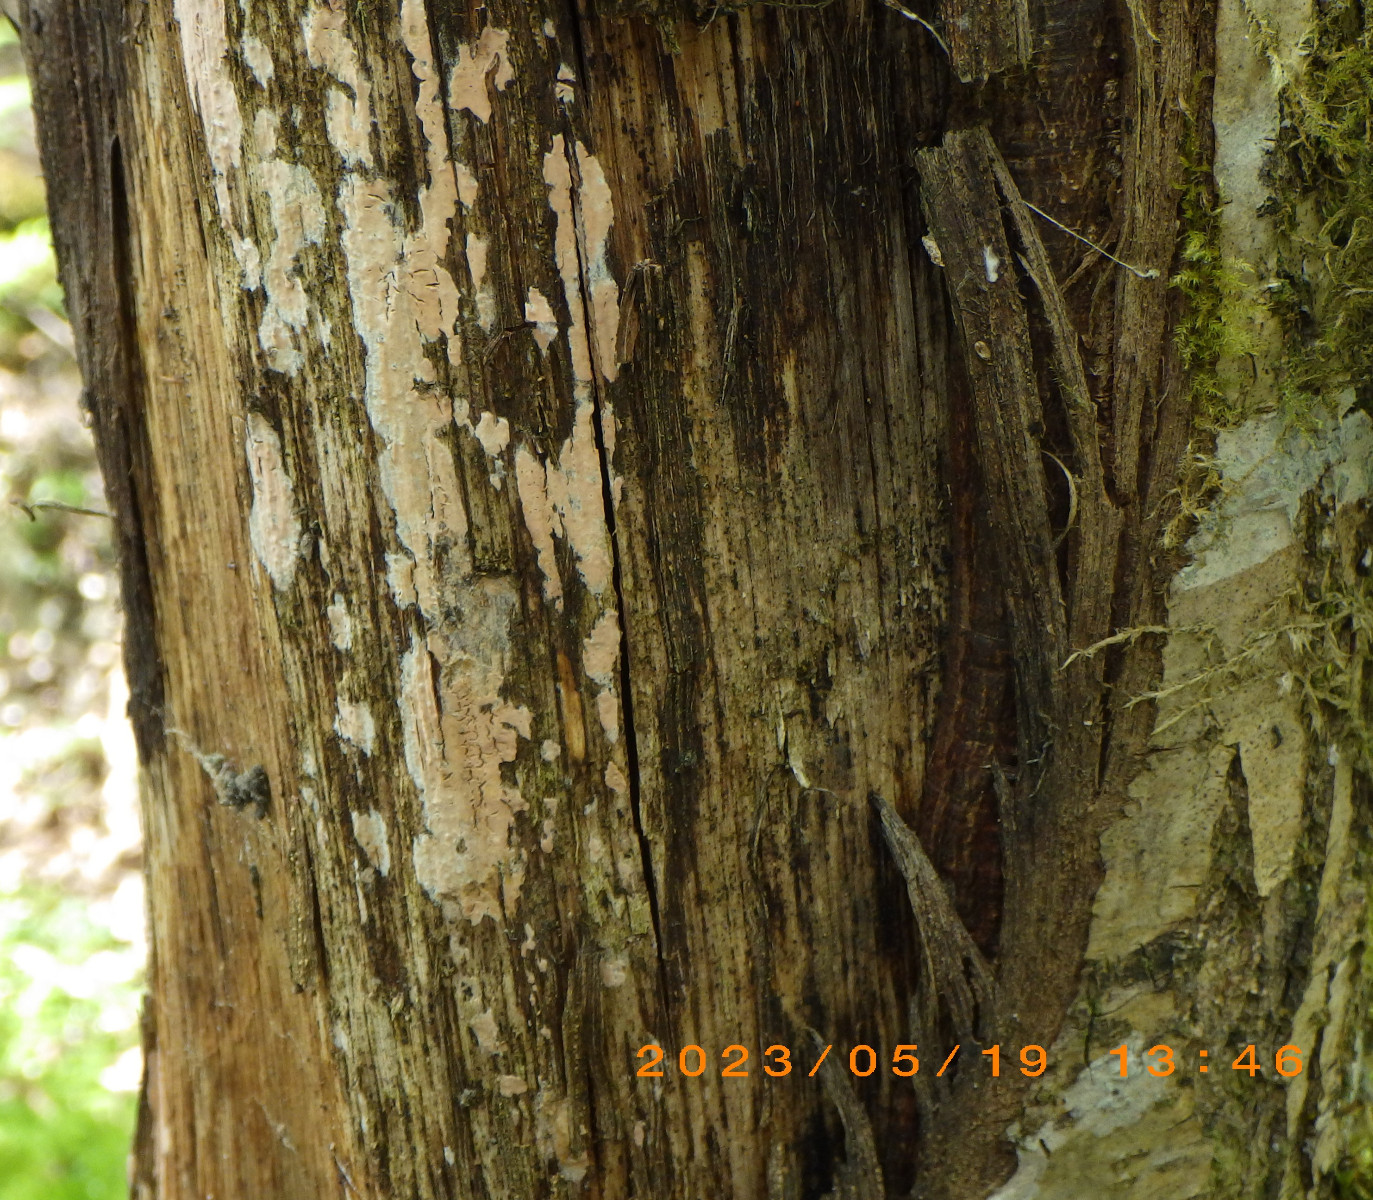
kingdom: Fungi
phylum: Basidiomycota
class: Agaricomycetes
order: Russulales
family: Peniophoraceae
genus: Peniophora
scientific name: Peniophora incarnata
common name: laksefarvet voksskind
